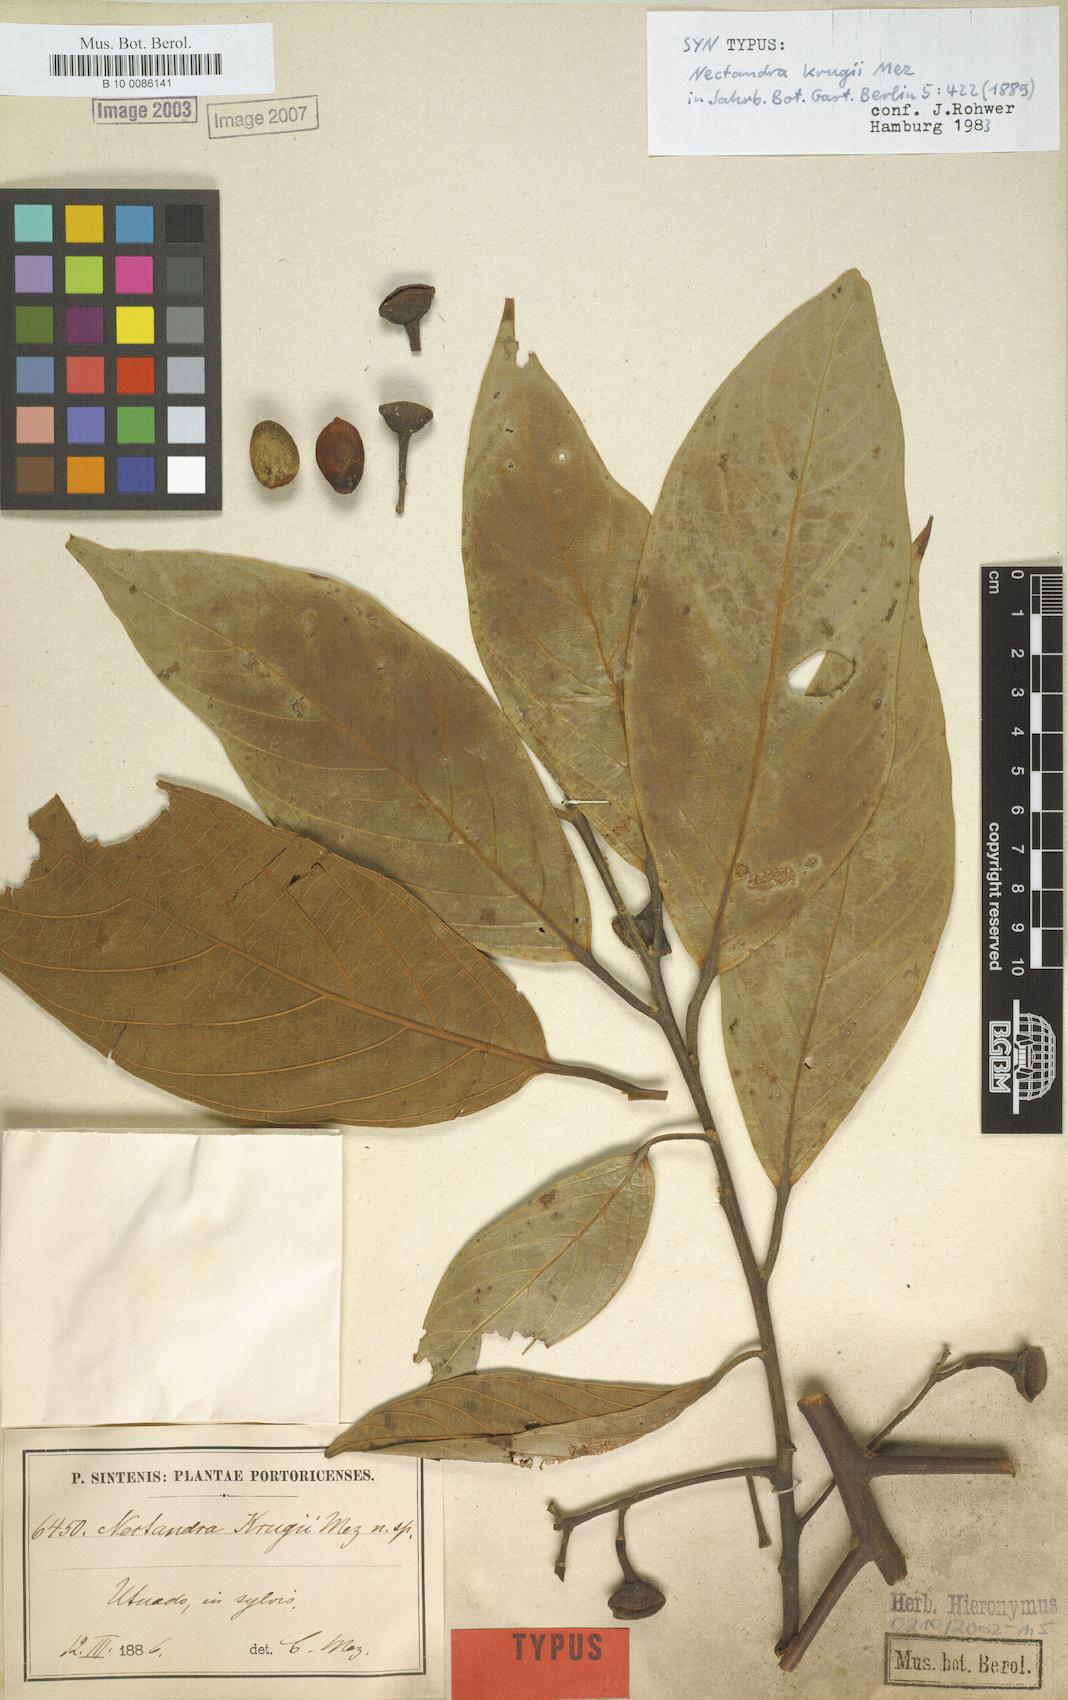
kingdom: Plantae
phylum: Tracheophyta
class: Magnoliopsida
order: Laurales
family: Lauraceae
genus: Nectandra
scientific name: Nectandra krugii
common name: Black sweetwood
